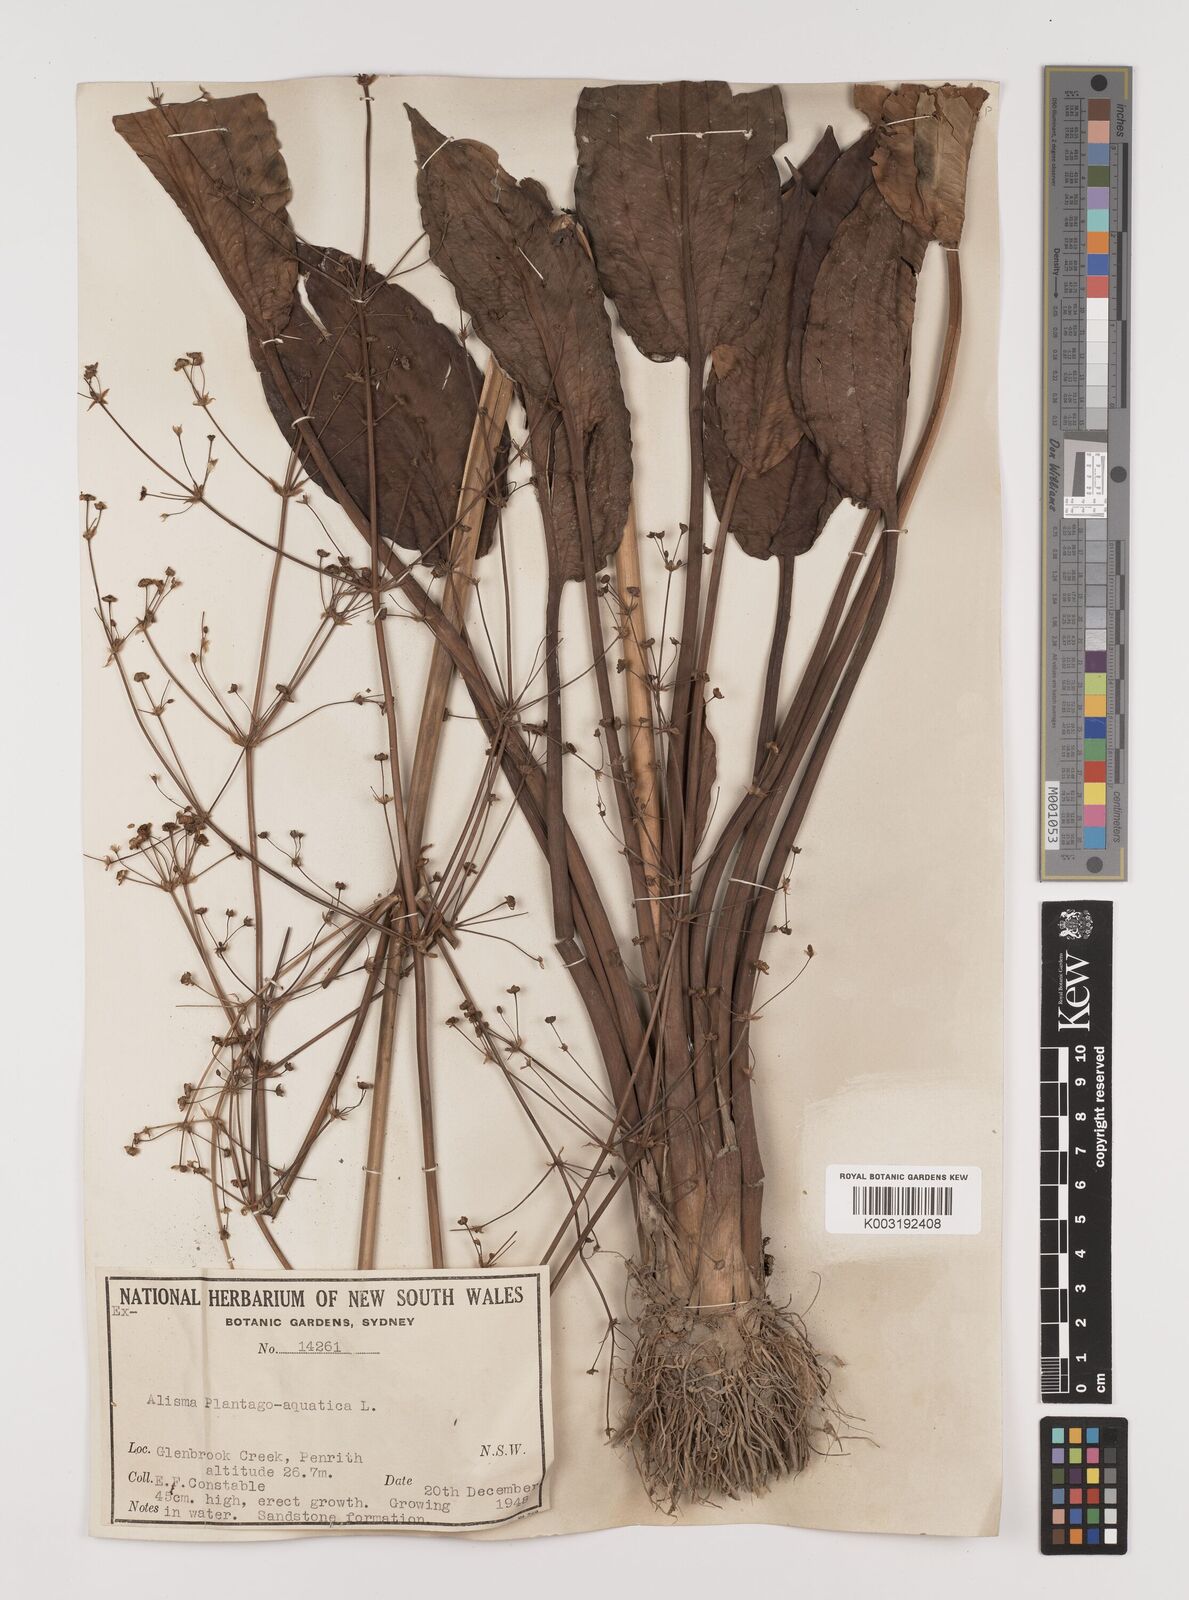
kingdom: Plantae
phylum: Tracheophyta
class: Liliopsida
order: Alismatales
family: Alismataceae
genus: Alisma
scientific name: Alisma plantago-aquatica
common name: Water-plantain
